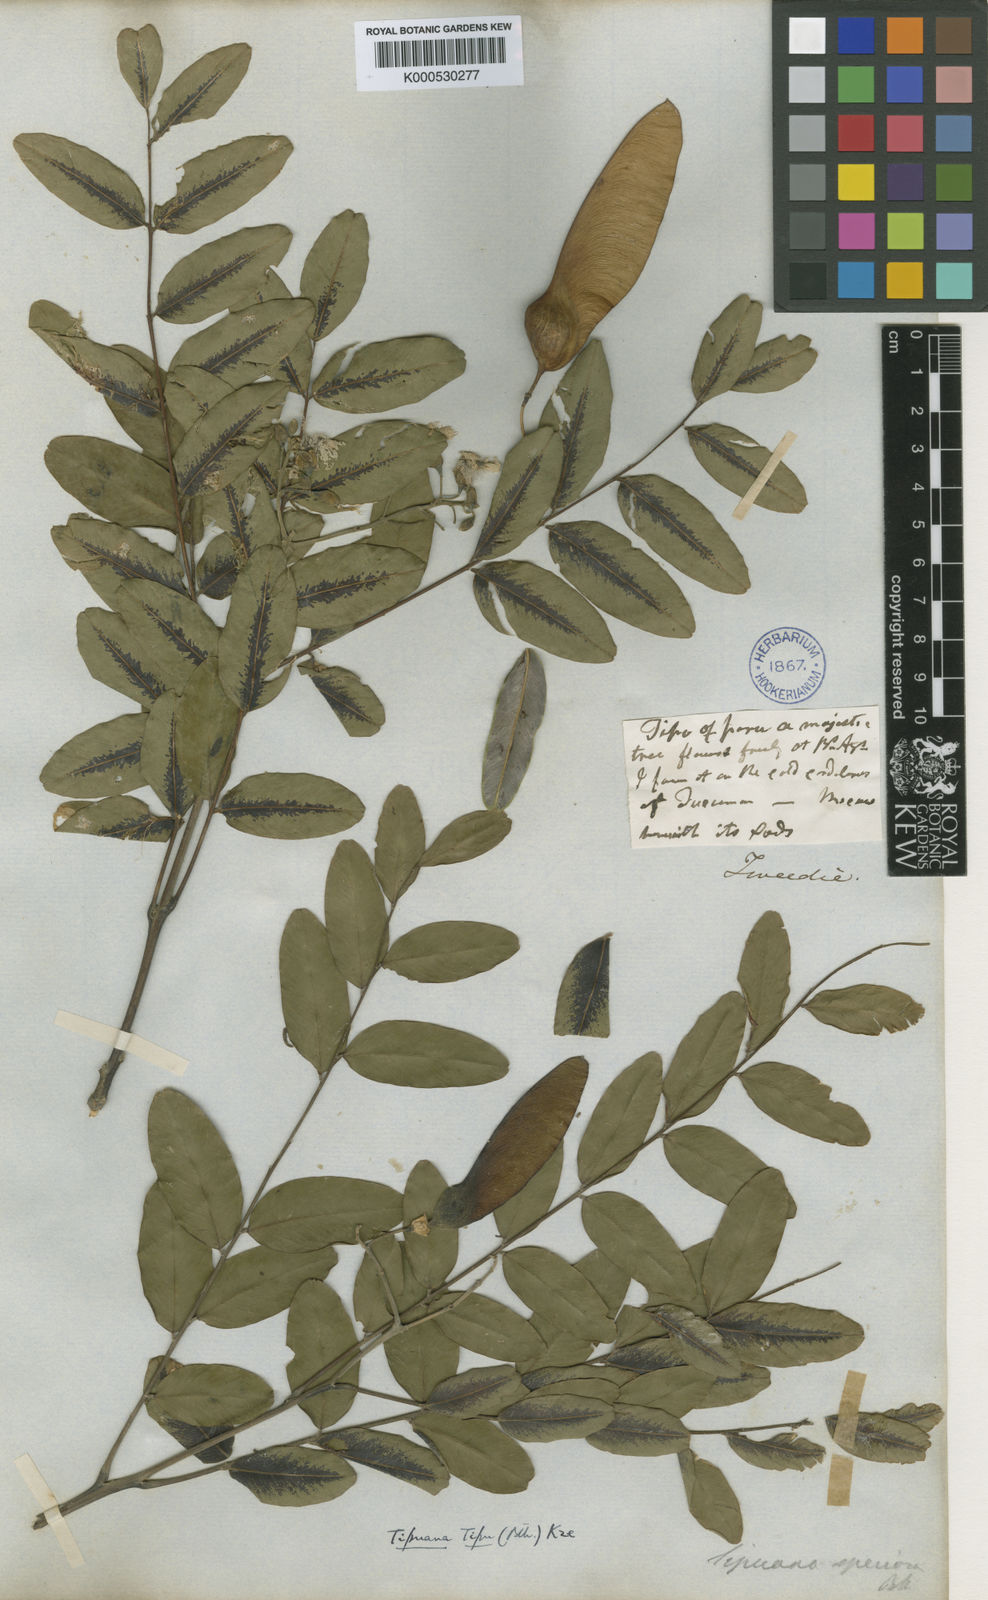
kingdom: Plantae
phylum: Tracheophyta
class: Magnoliopsida
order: Fabales
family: Fabaceae
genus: Tipuana
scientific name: Tipuana tipu
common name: Tiputree
